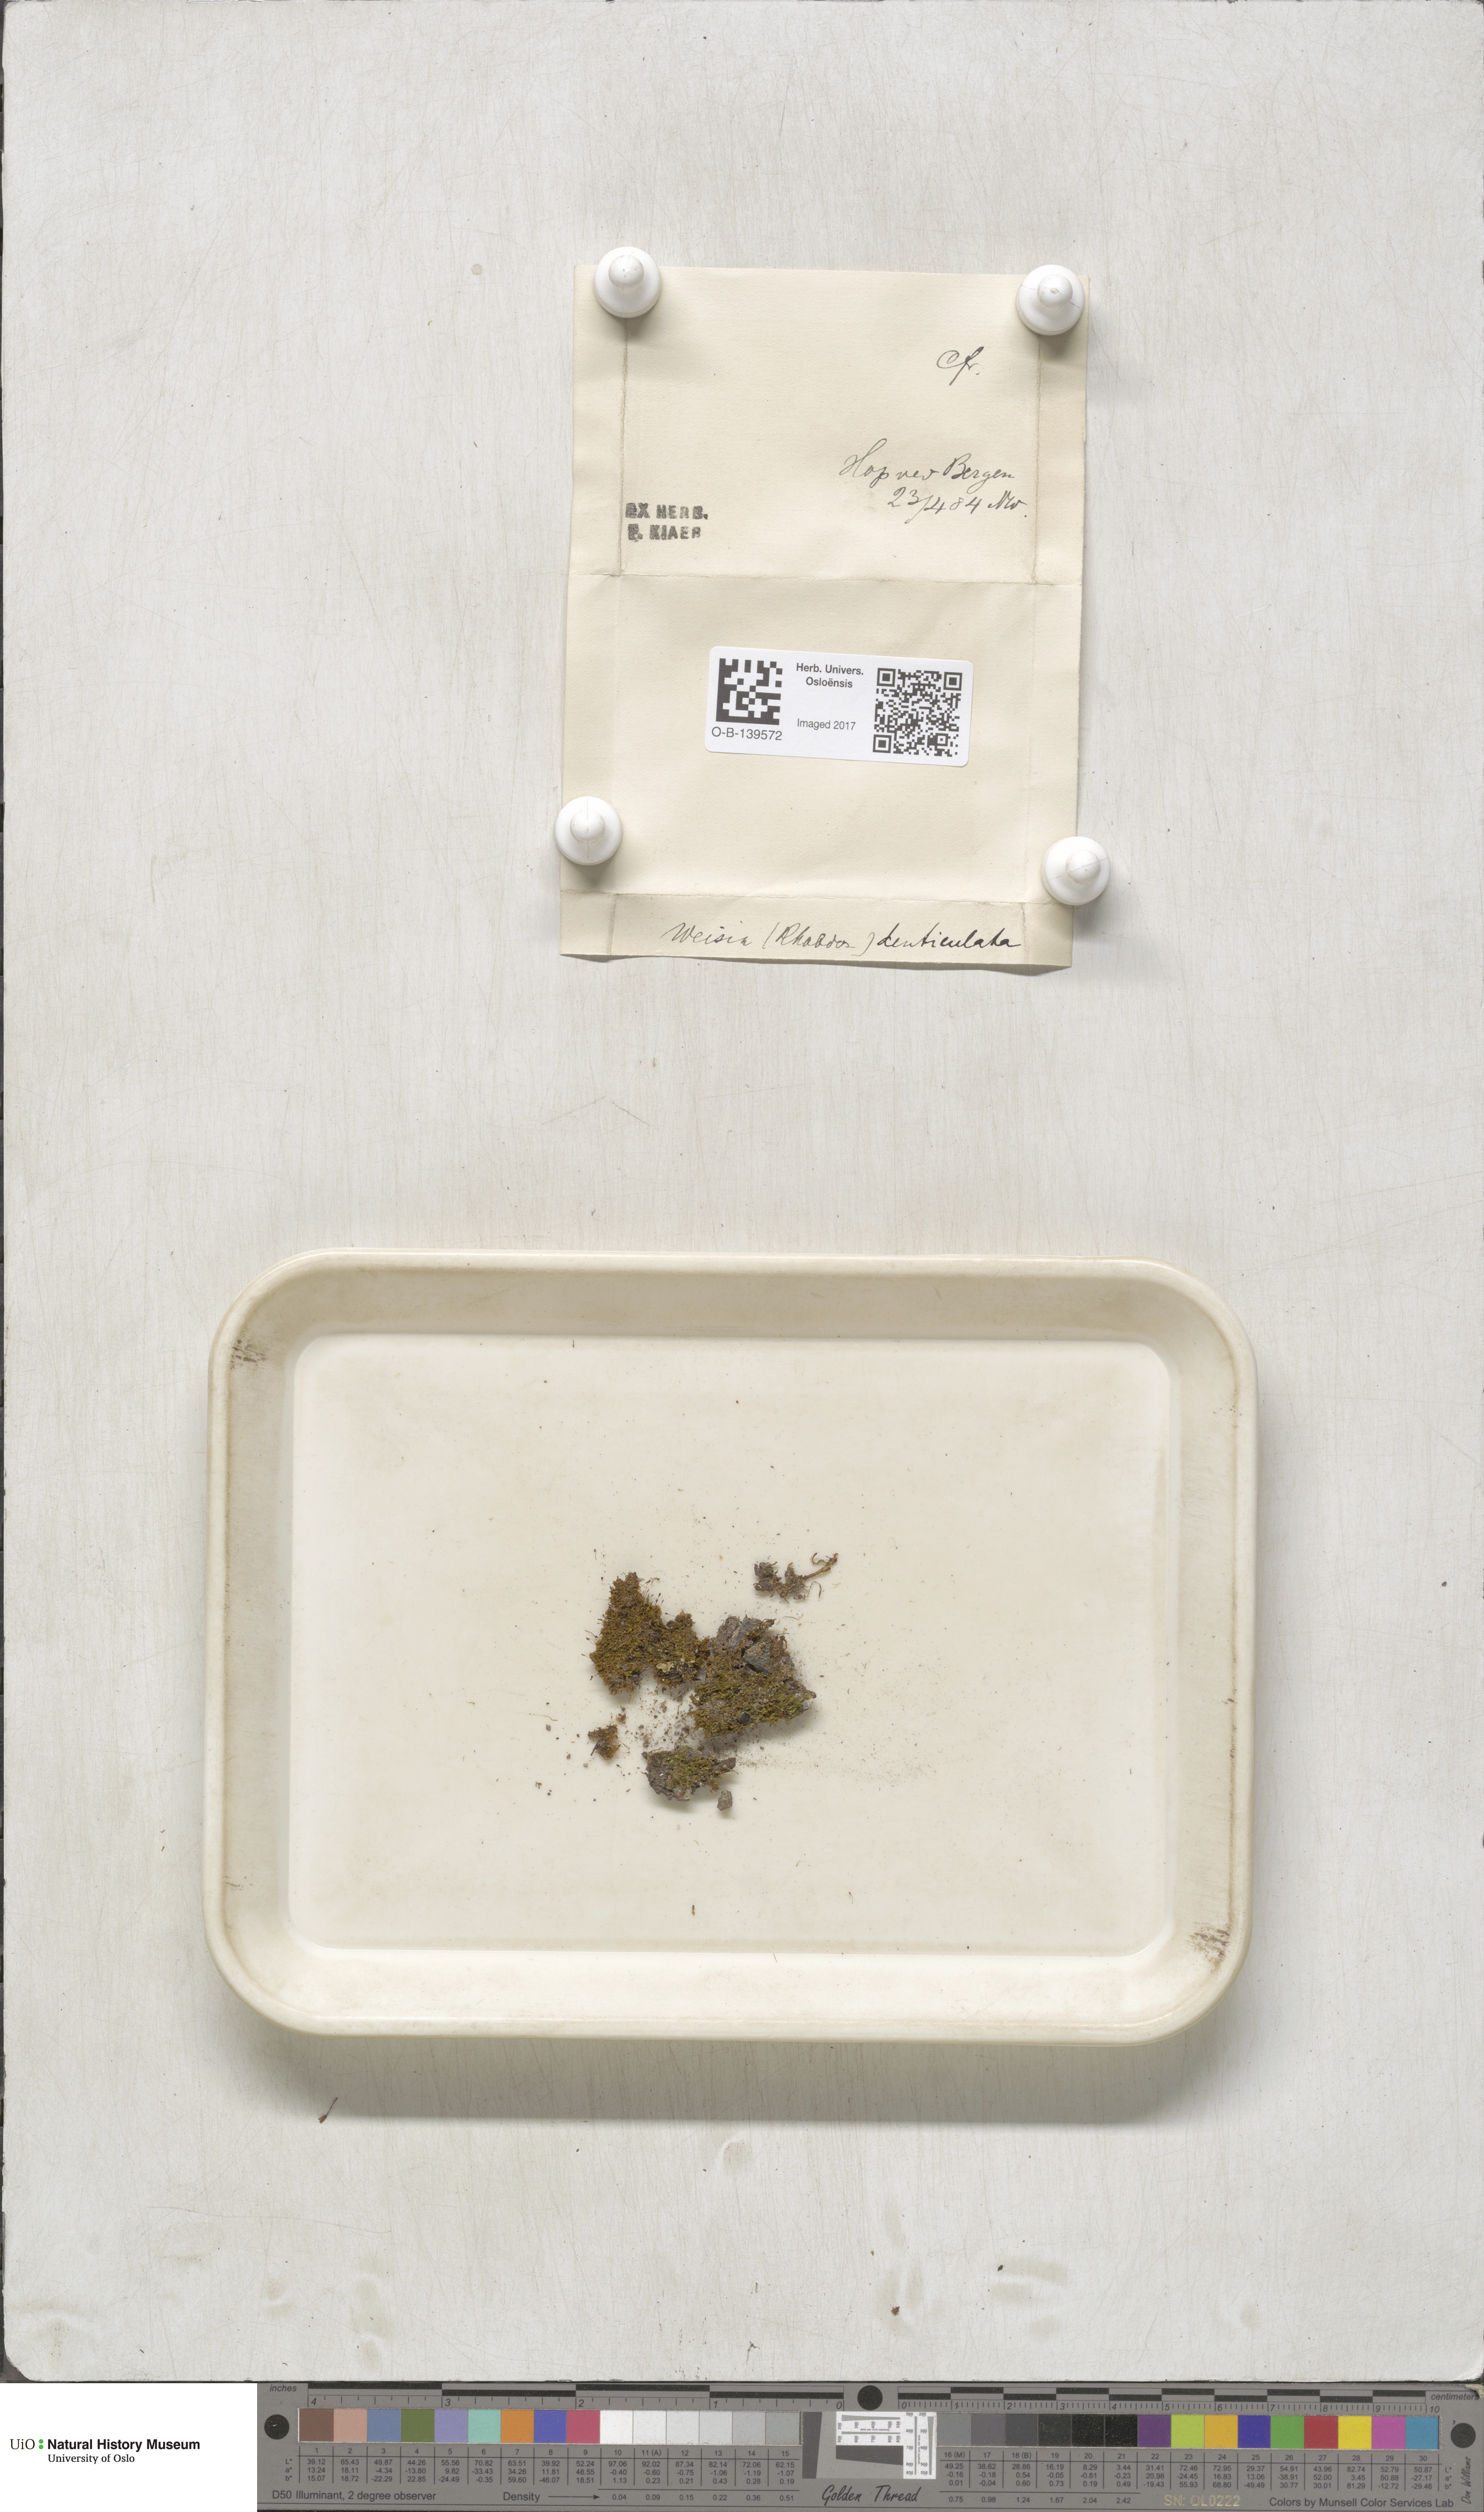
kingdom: Plantae
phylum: Bryophyta
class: Bryopsida
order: Dicranales
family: Rhabdoweisiaceae
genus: Rhabdoweisia
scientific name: Rhabdoweisia crispata
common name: Fine-toothed streak moss
